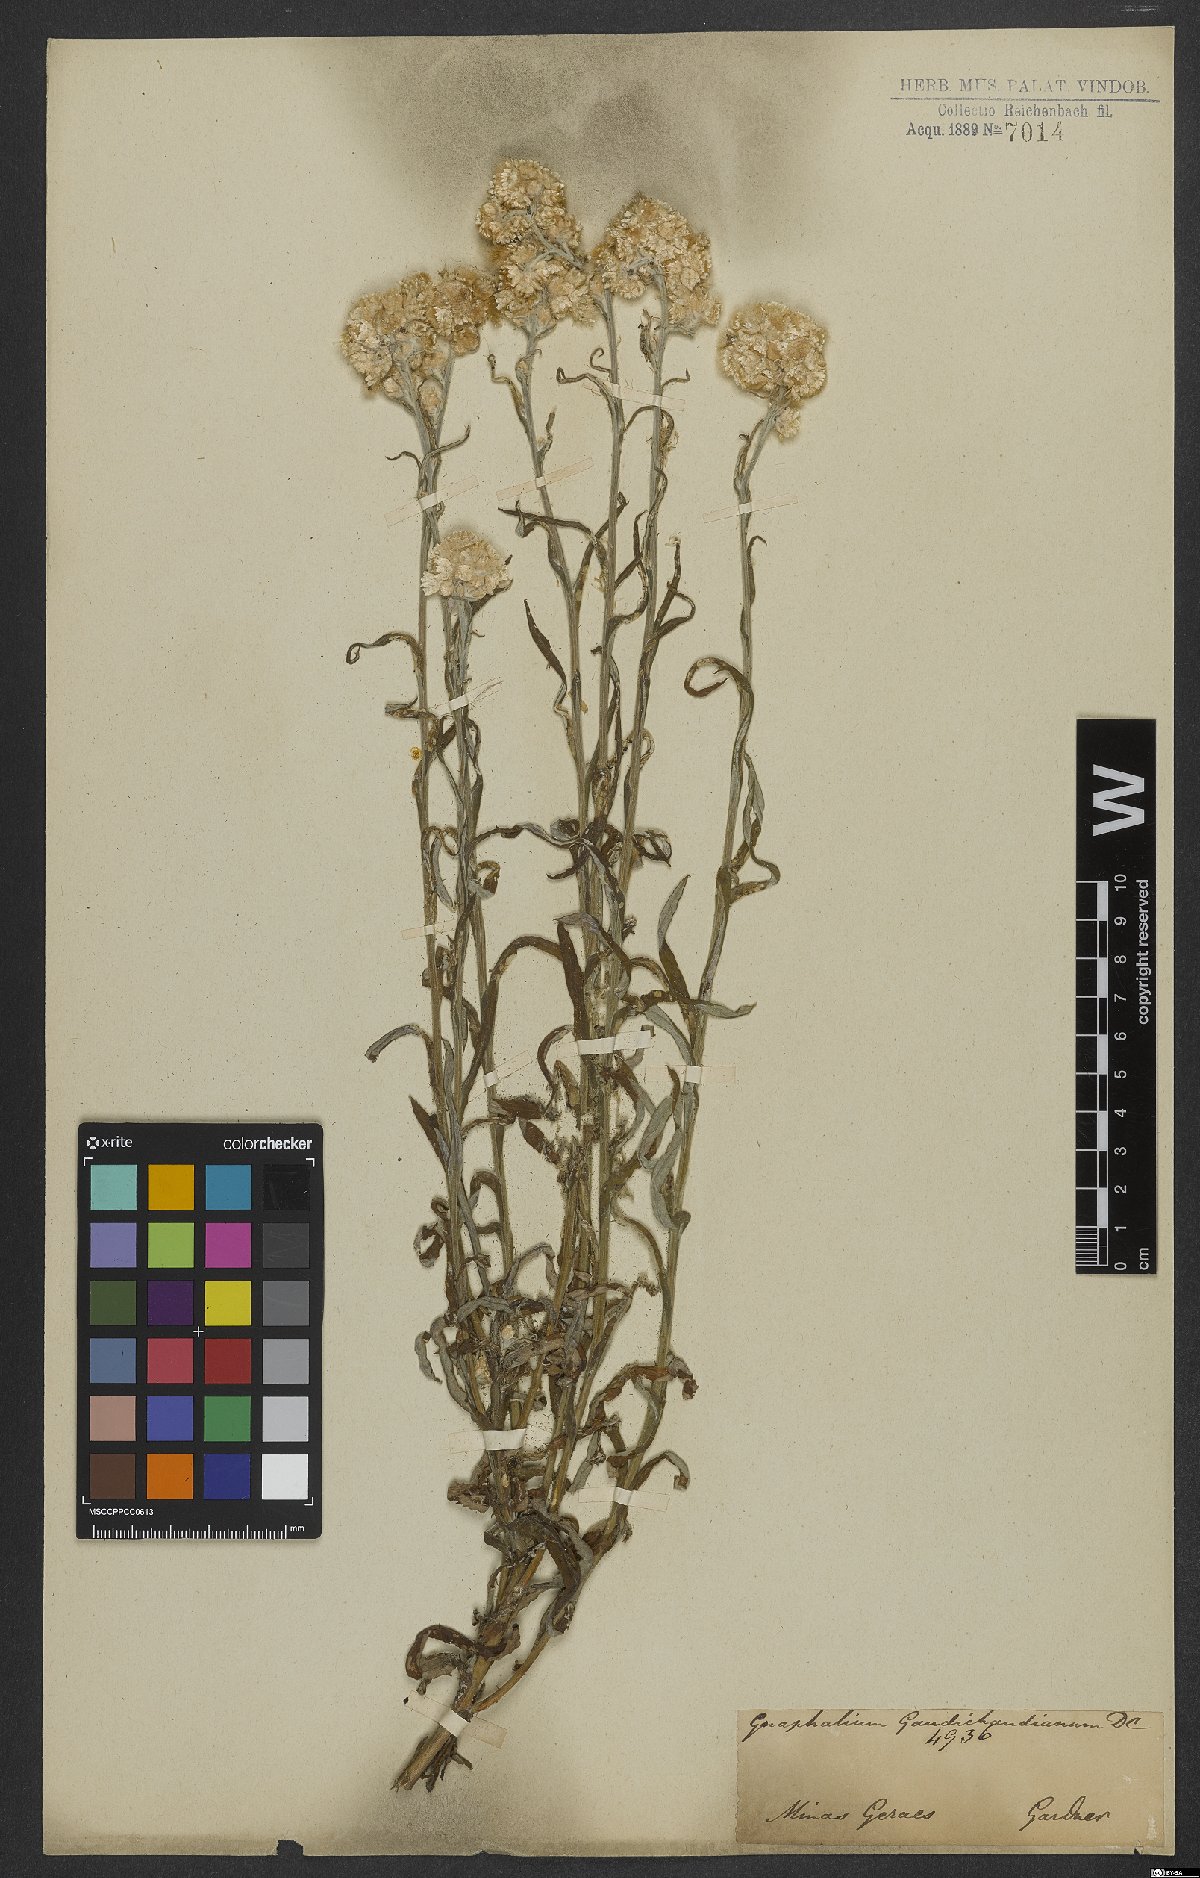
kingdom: Plantae
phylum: Tracheophyta
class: Magnoliopsida
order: Asterales
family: Asteraceae
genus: Pseudognaphalium
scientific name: Pseudognaphalium gaudichaudianum
